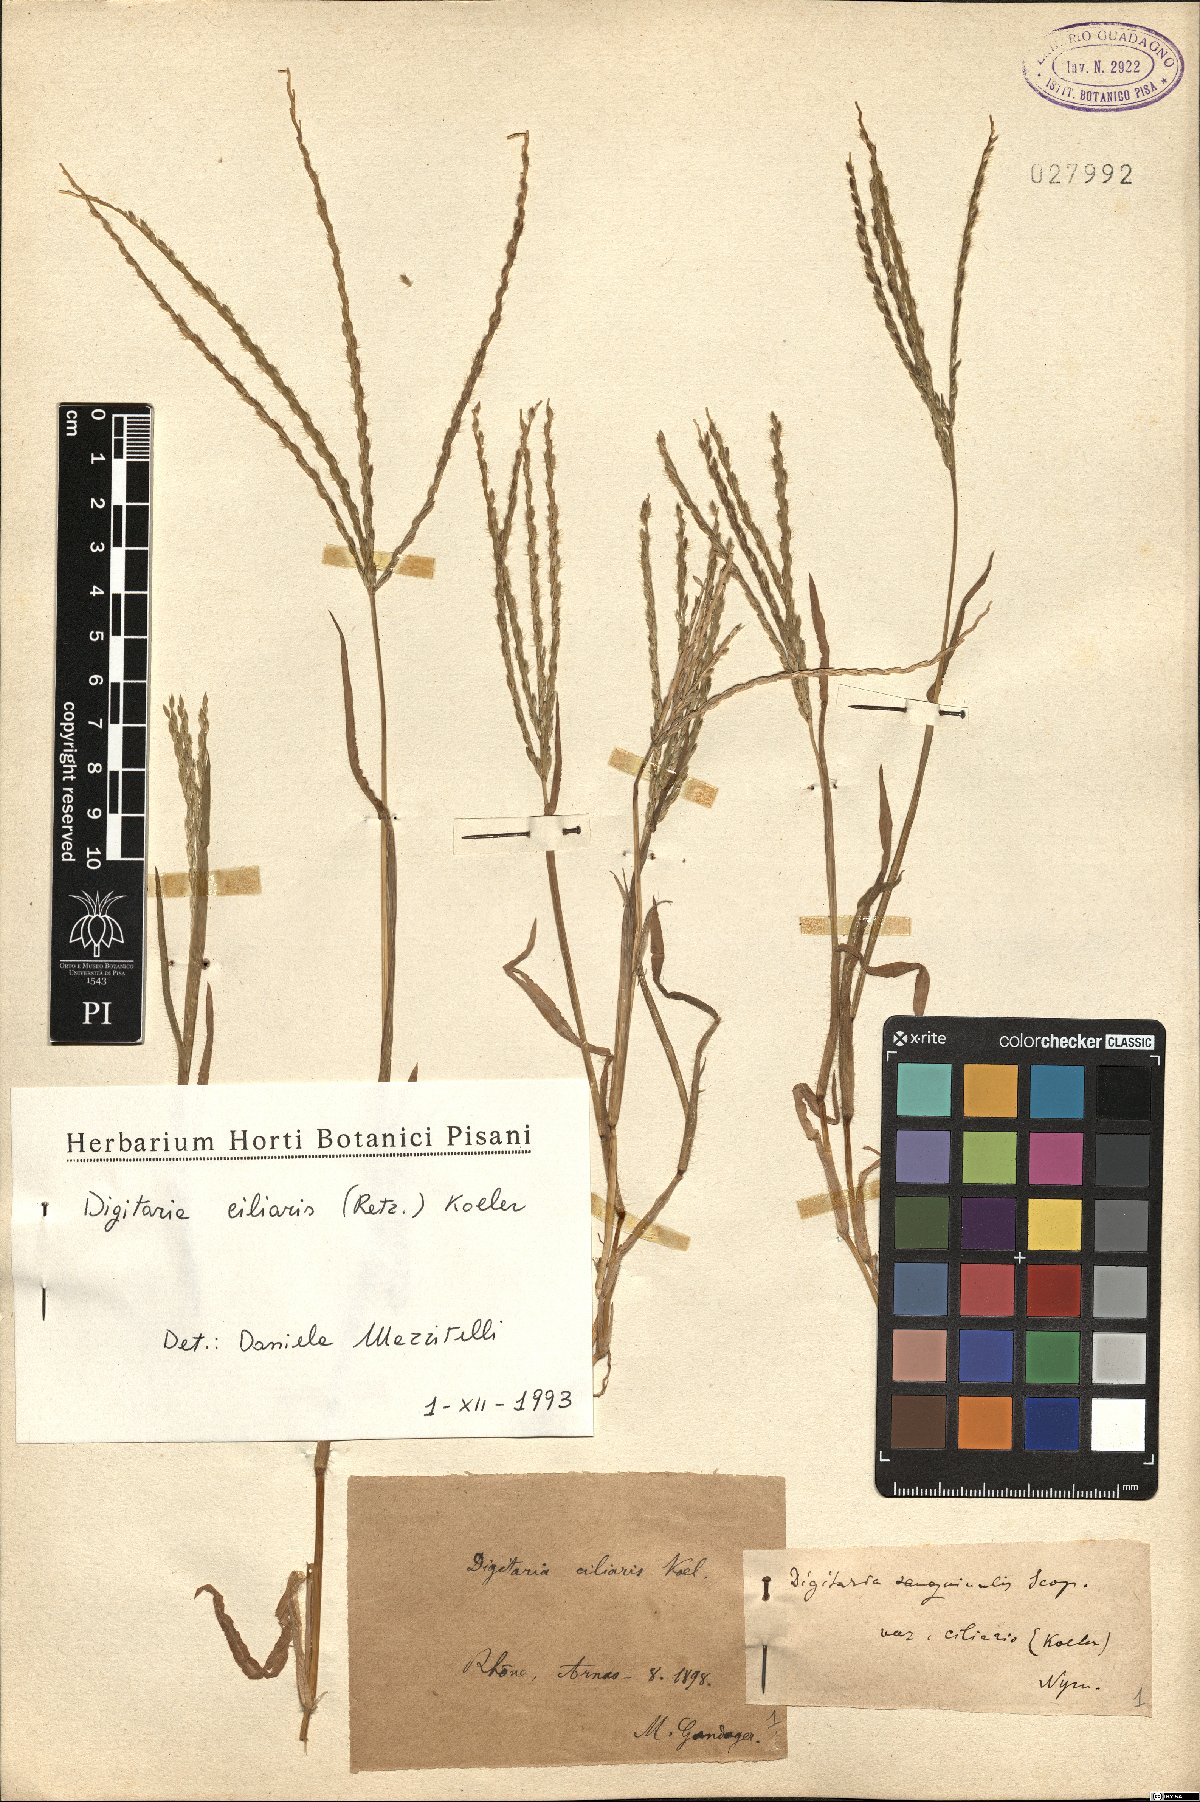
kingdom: Plantae
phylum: Tracheophyta
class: Liliopsida
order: Poales
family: Poaceae
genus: Digitaria
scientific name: Digitaria ciliaris
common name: Tropical finger-grass
